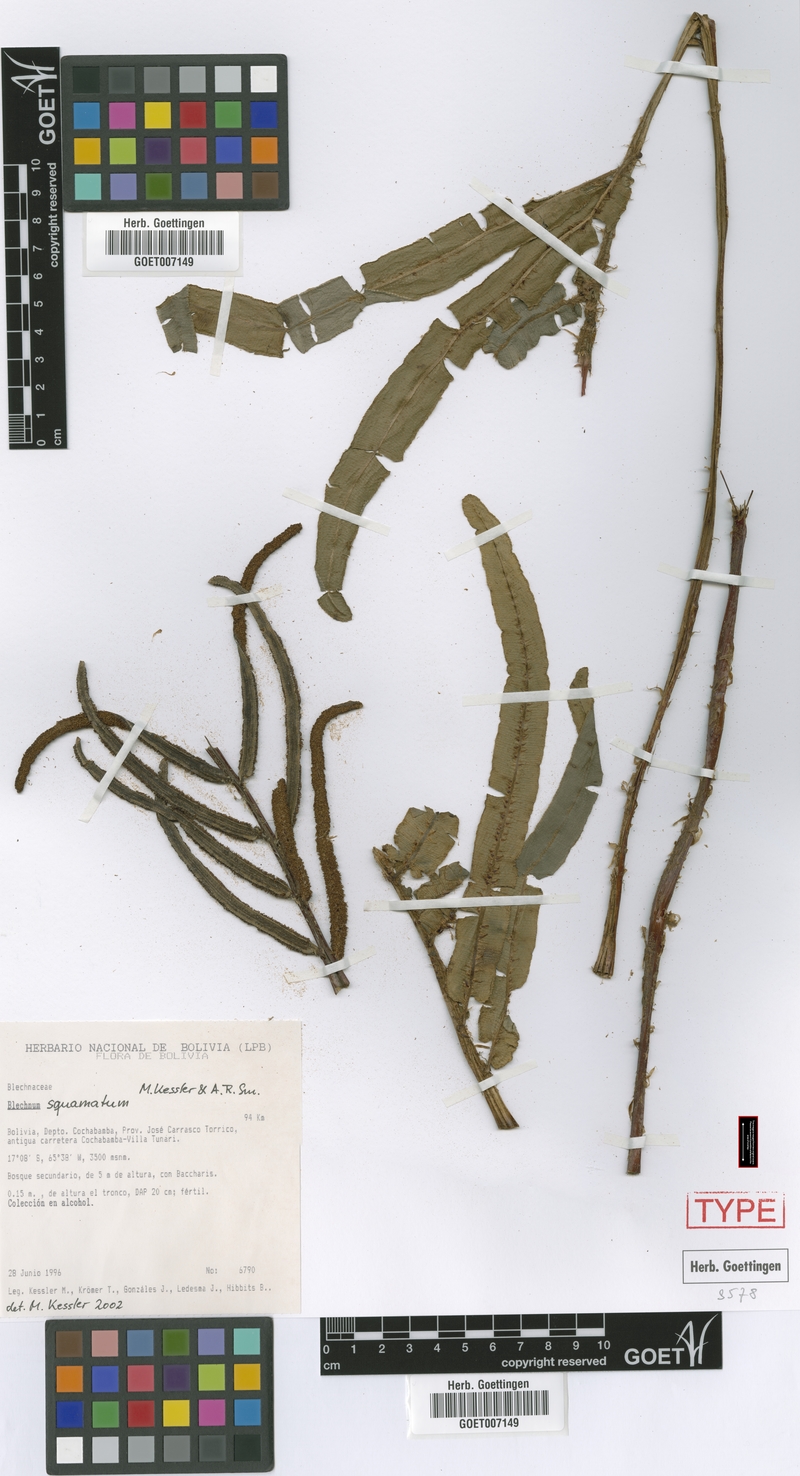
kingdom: Plantae
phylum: Tracheophyta
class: Polypodiopsida
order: Polypodiales
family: Blechnaceae
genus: Parablechnum
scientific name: Parablechnum squamatum
